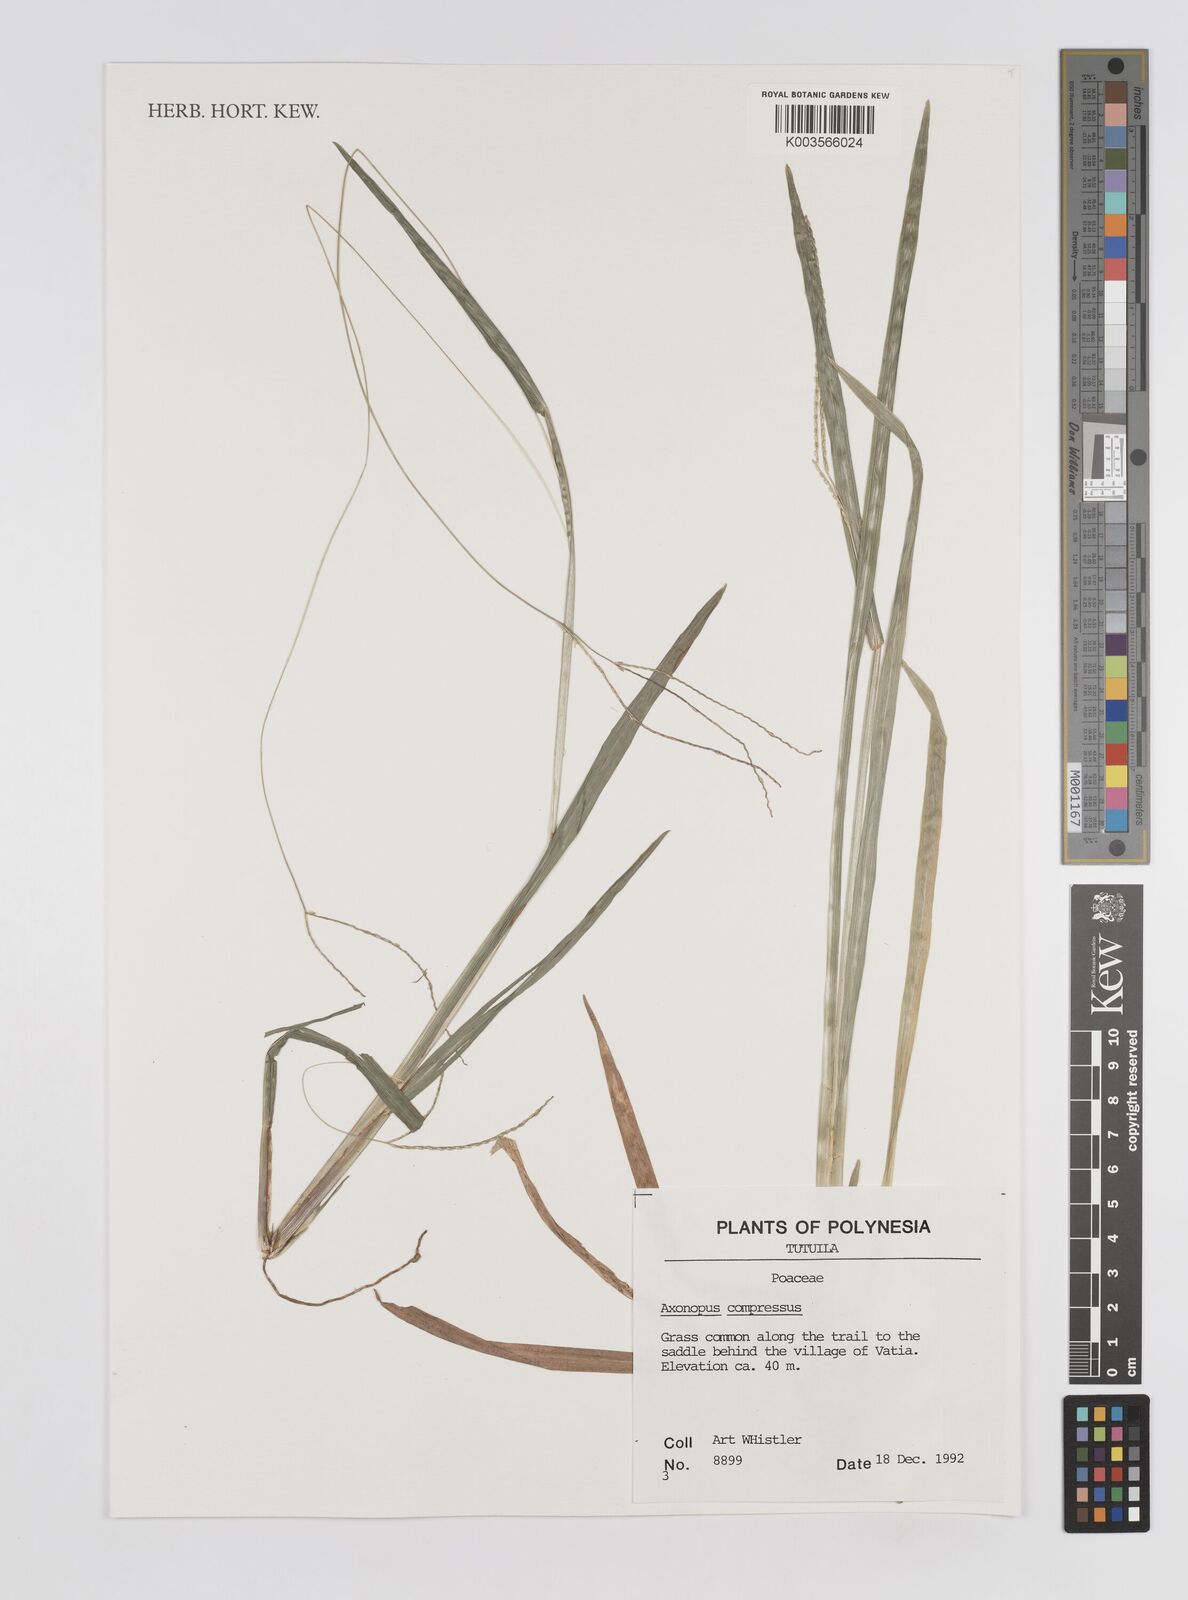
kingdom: Plantae
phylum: Tracheophyta
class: Liliopsida
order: Poales
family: Poaceae
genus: Axonopus
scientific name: Axonopus compressus
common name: American carpet grass
